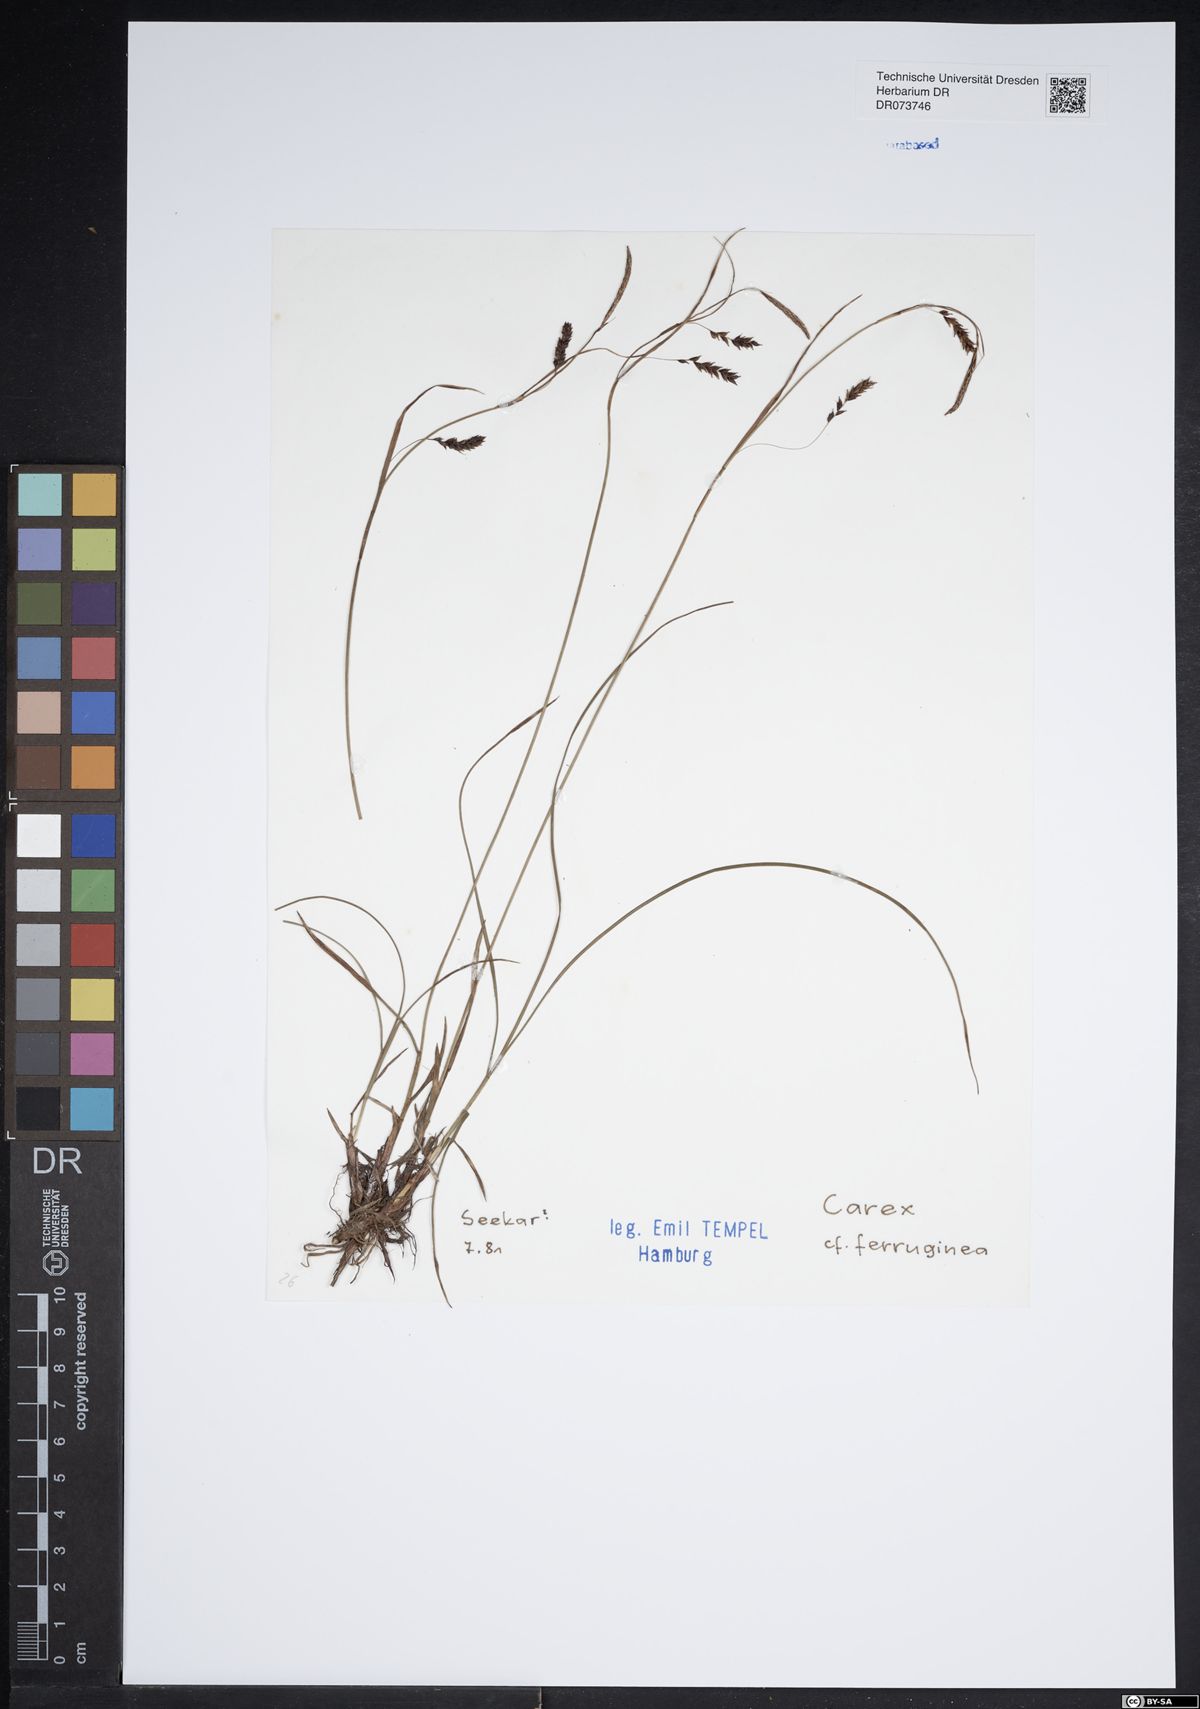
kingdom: Plantae
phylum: Tracheophyta
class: Liliopsida
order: Poales
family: Cyperaceae
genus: Carex
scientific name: Carex ferruginea
